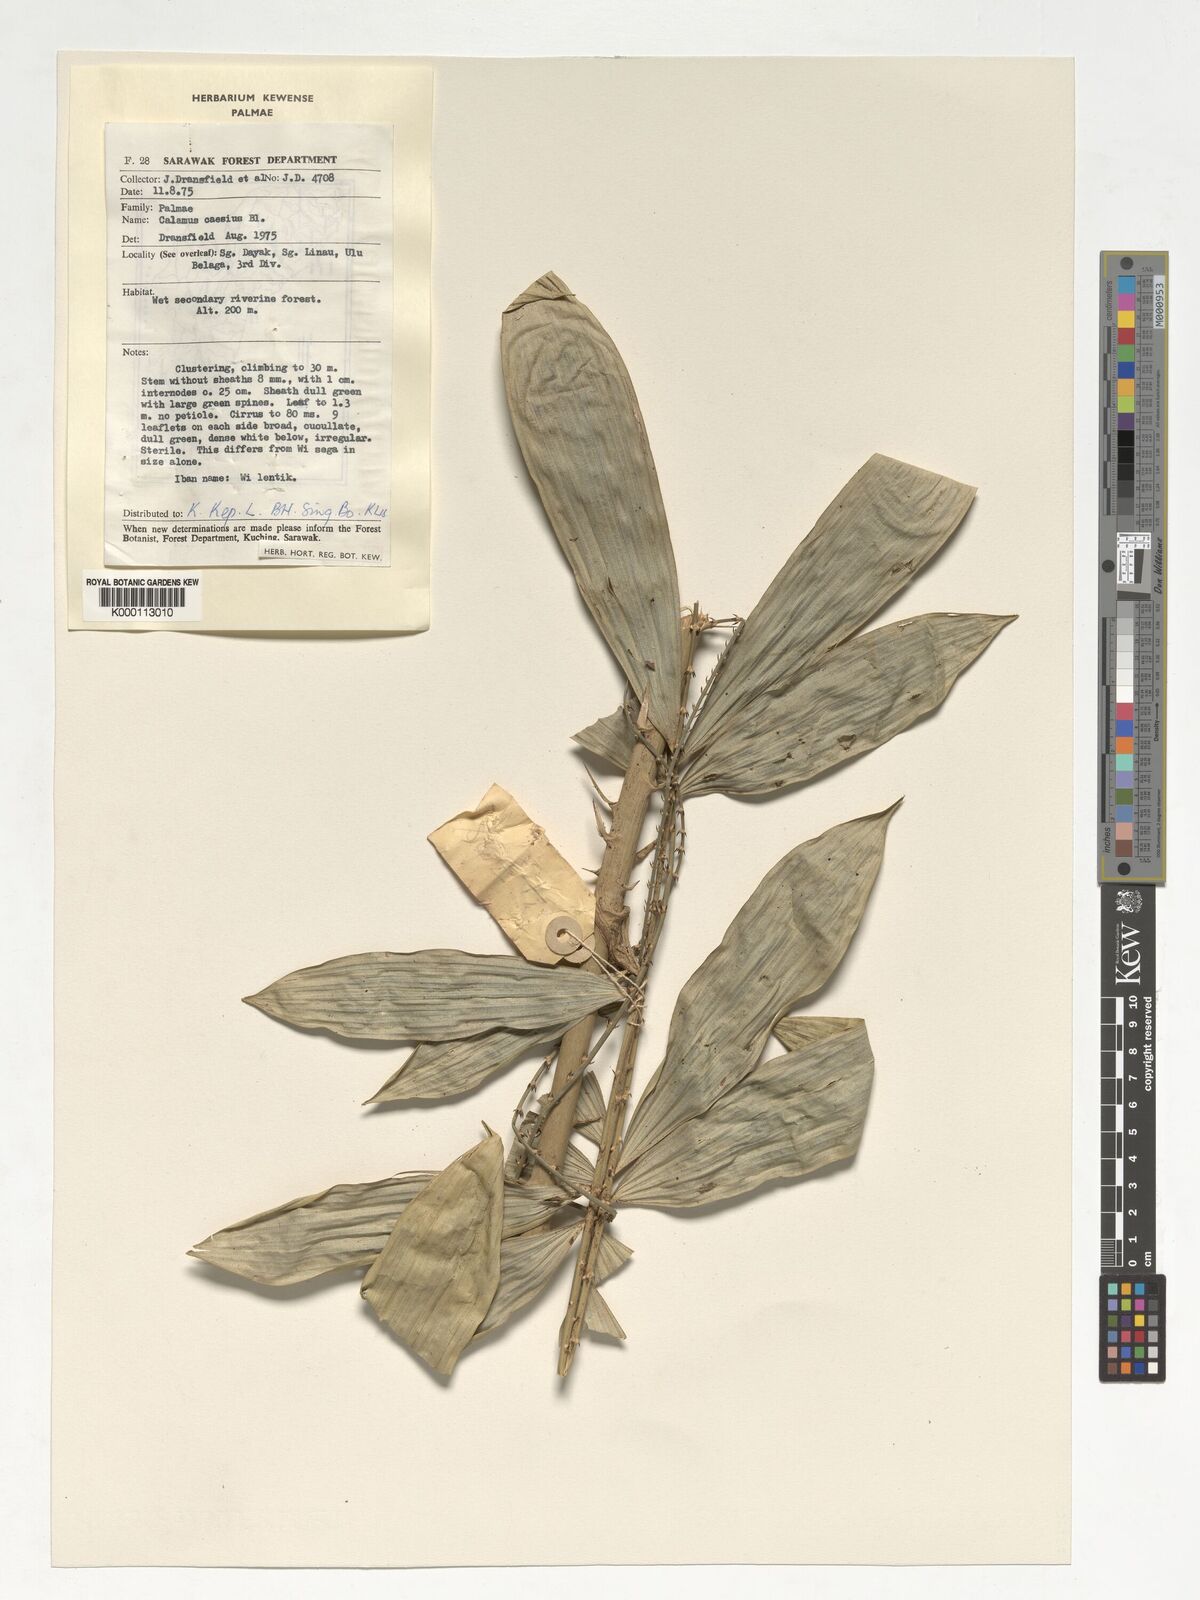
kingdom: Plantae
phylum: Tracheophyta
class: Liliopsida
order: Arecales
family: Arecaceae
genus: Calamus
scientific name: Calamus caesius
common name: Rattan palm
